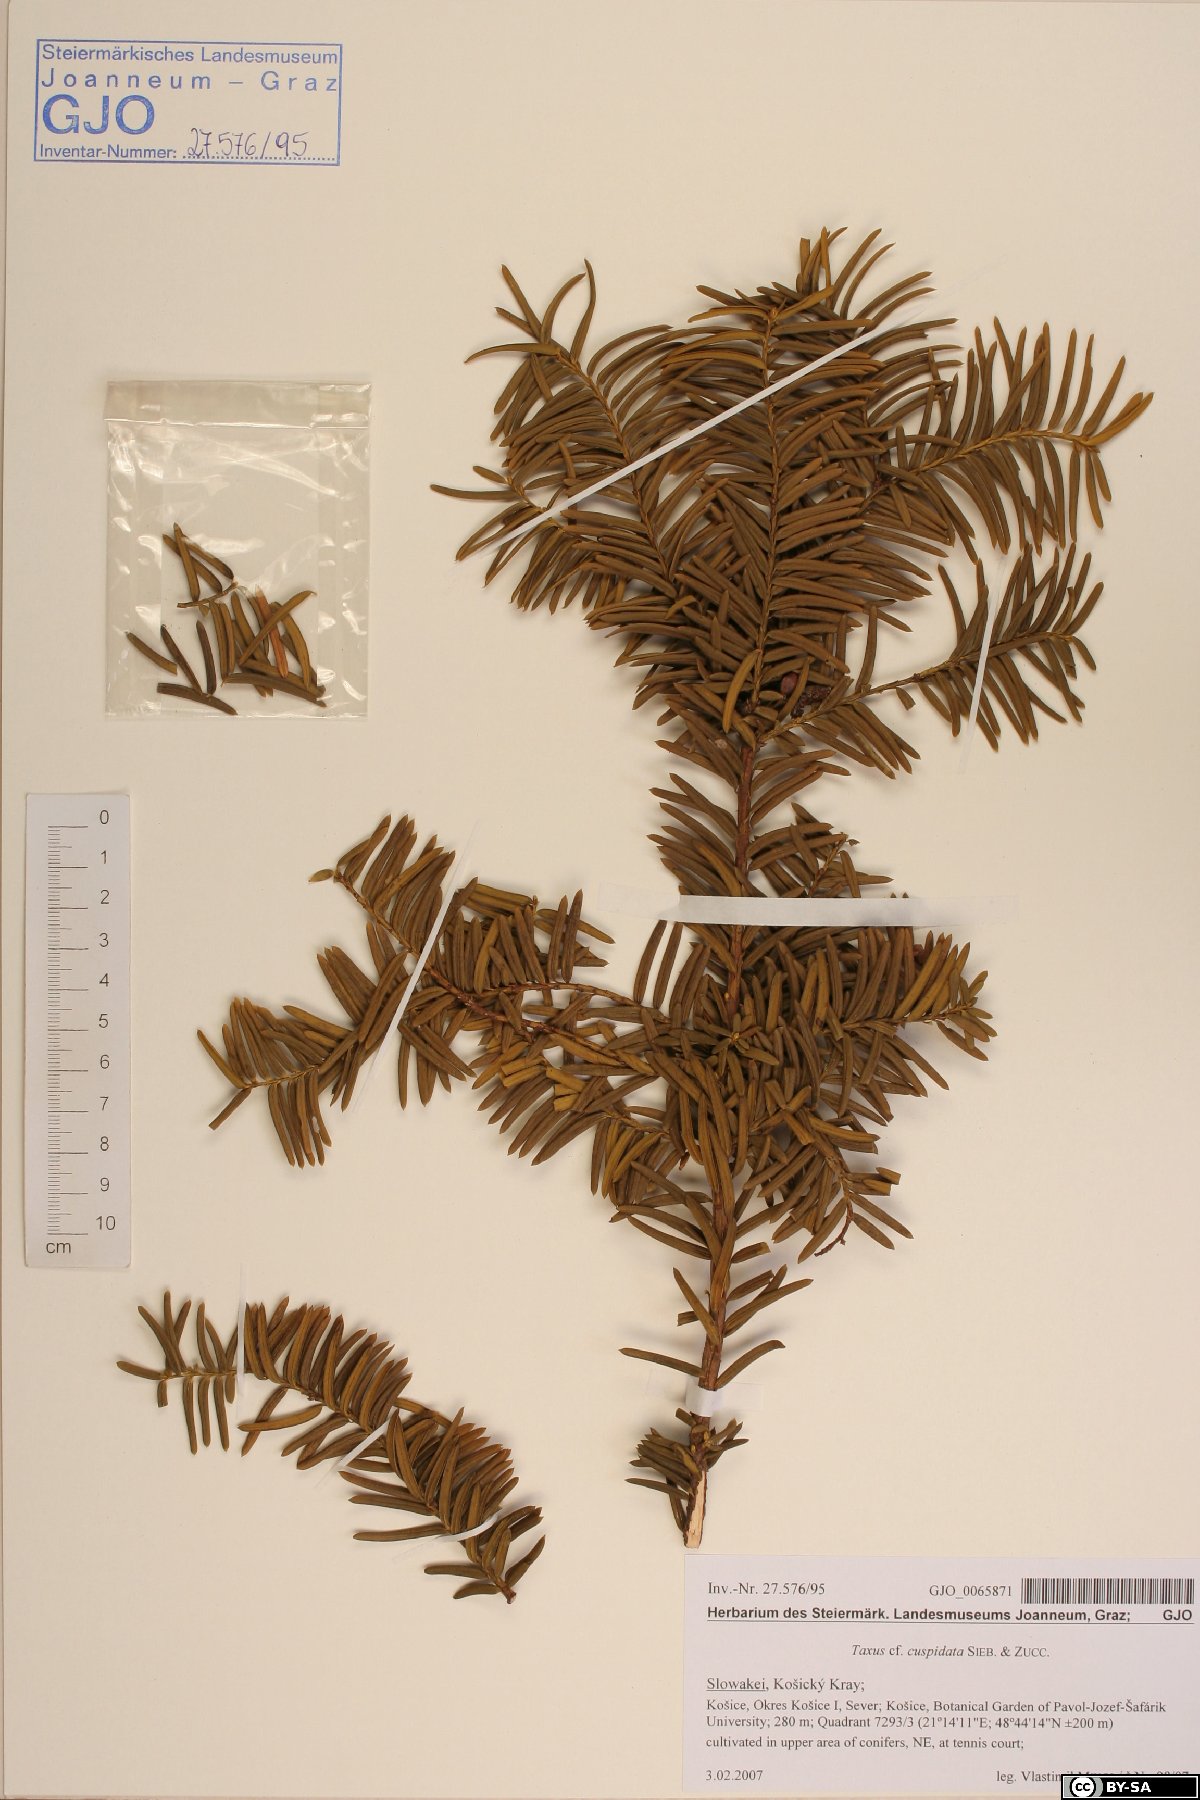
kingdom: Plantae
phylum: Tracheophyta
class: Pinopsida
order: Pinales
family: Taxaceae
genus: Taxus
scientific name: Taxus cuspidata
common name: Japanese yew
